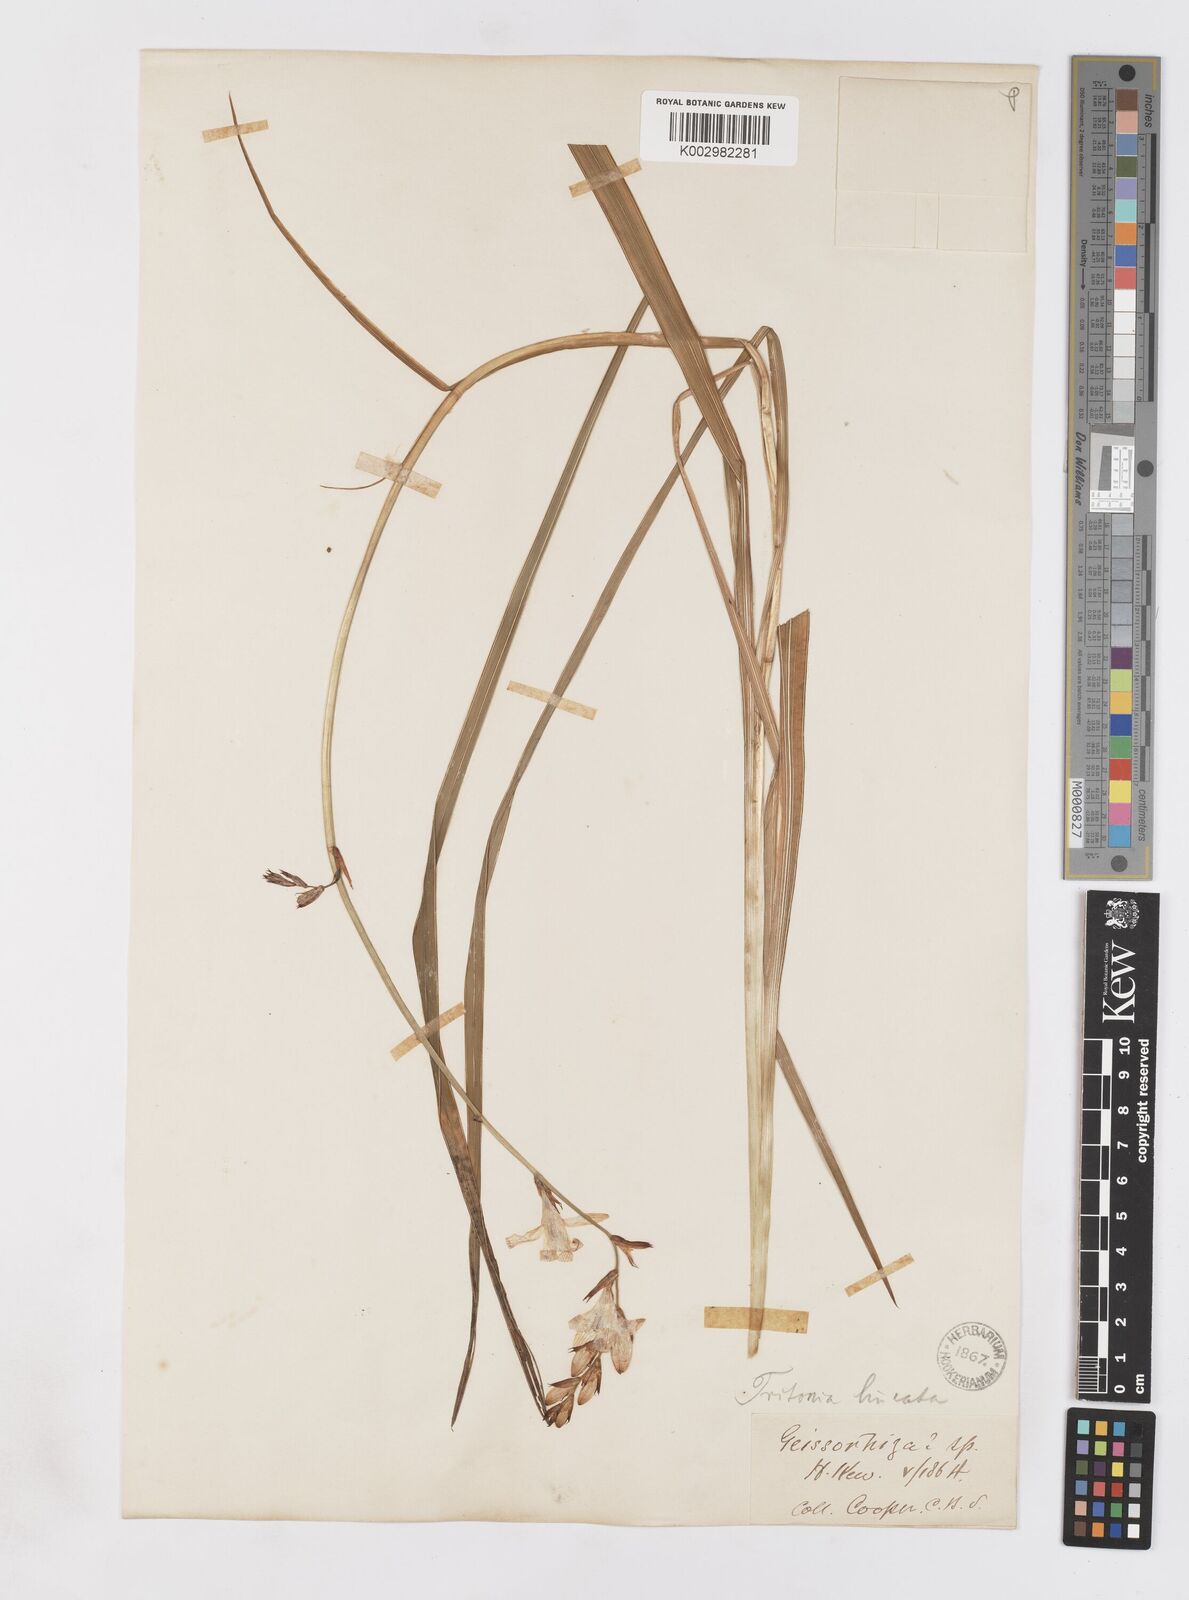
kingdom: Plantae
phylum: Tracheophyta
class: Liliopsida
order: Asparagales
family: Iridaceae
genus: Tritonia
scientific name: Tritonia disticha
